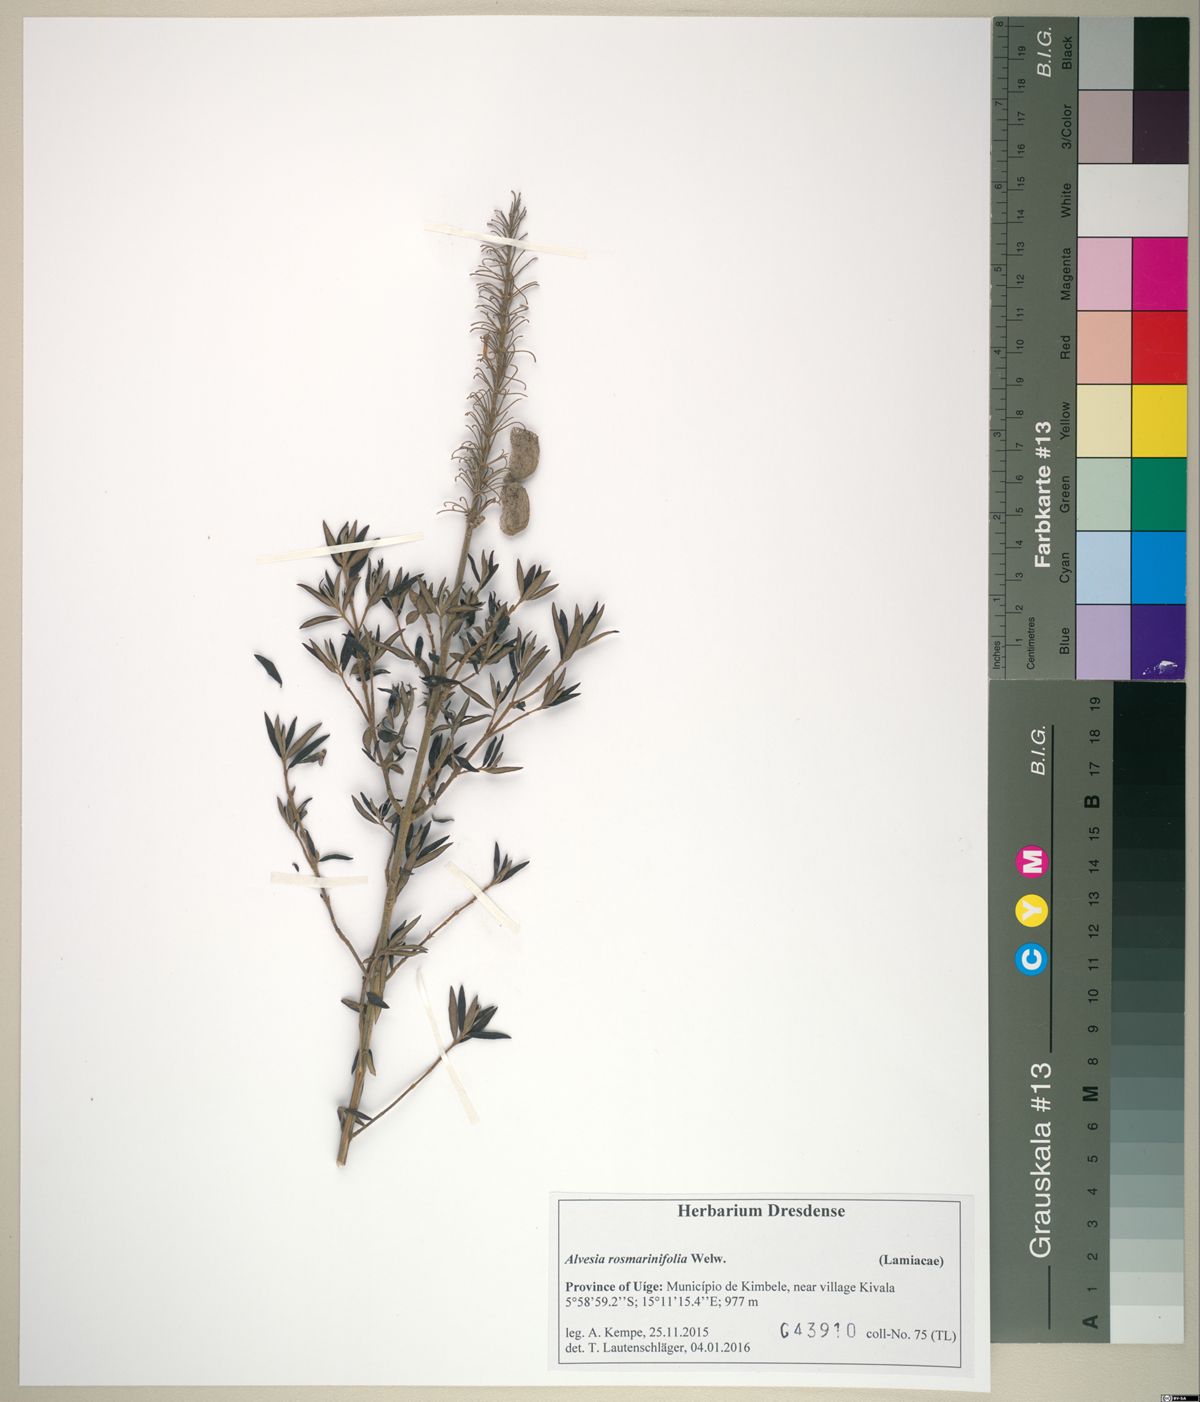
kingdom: Plantae
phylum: Tracheophyta
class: Magnoliopsida
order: Lamiales
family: Lamiaceae
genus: Alvesia
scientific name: Alvesia rosmarinifolia
